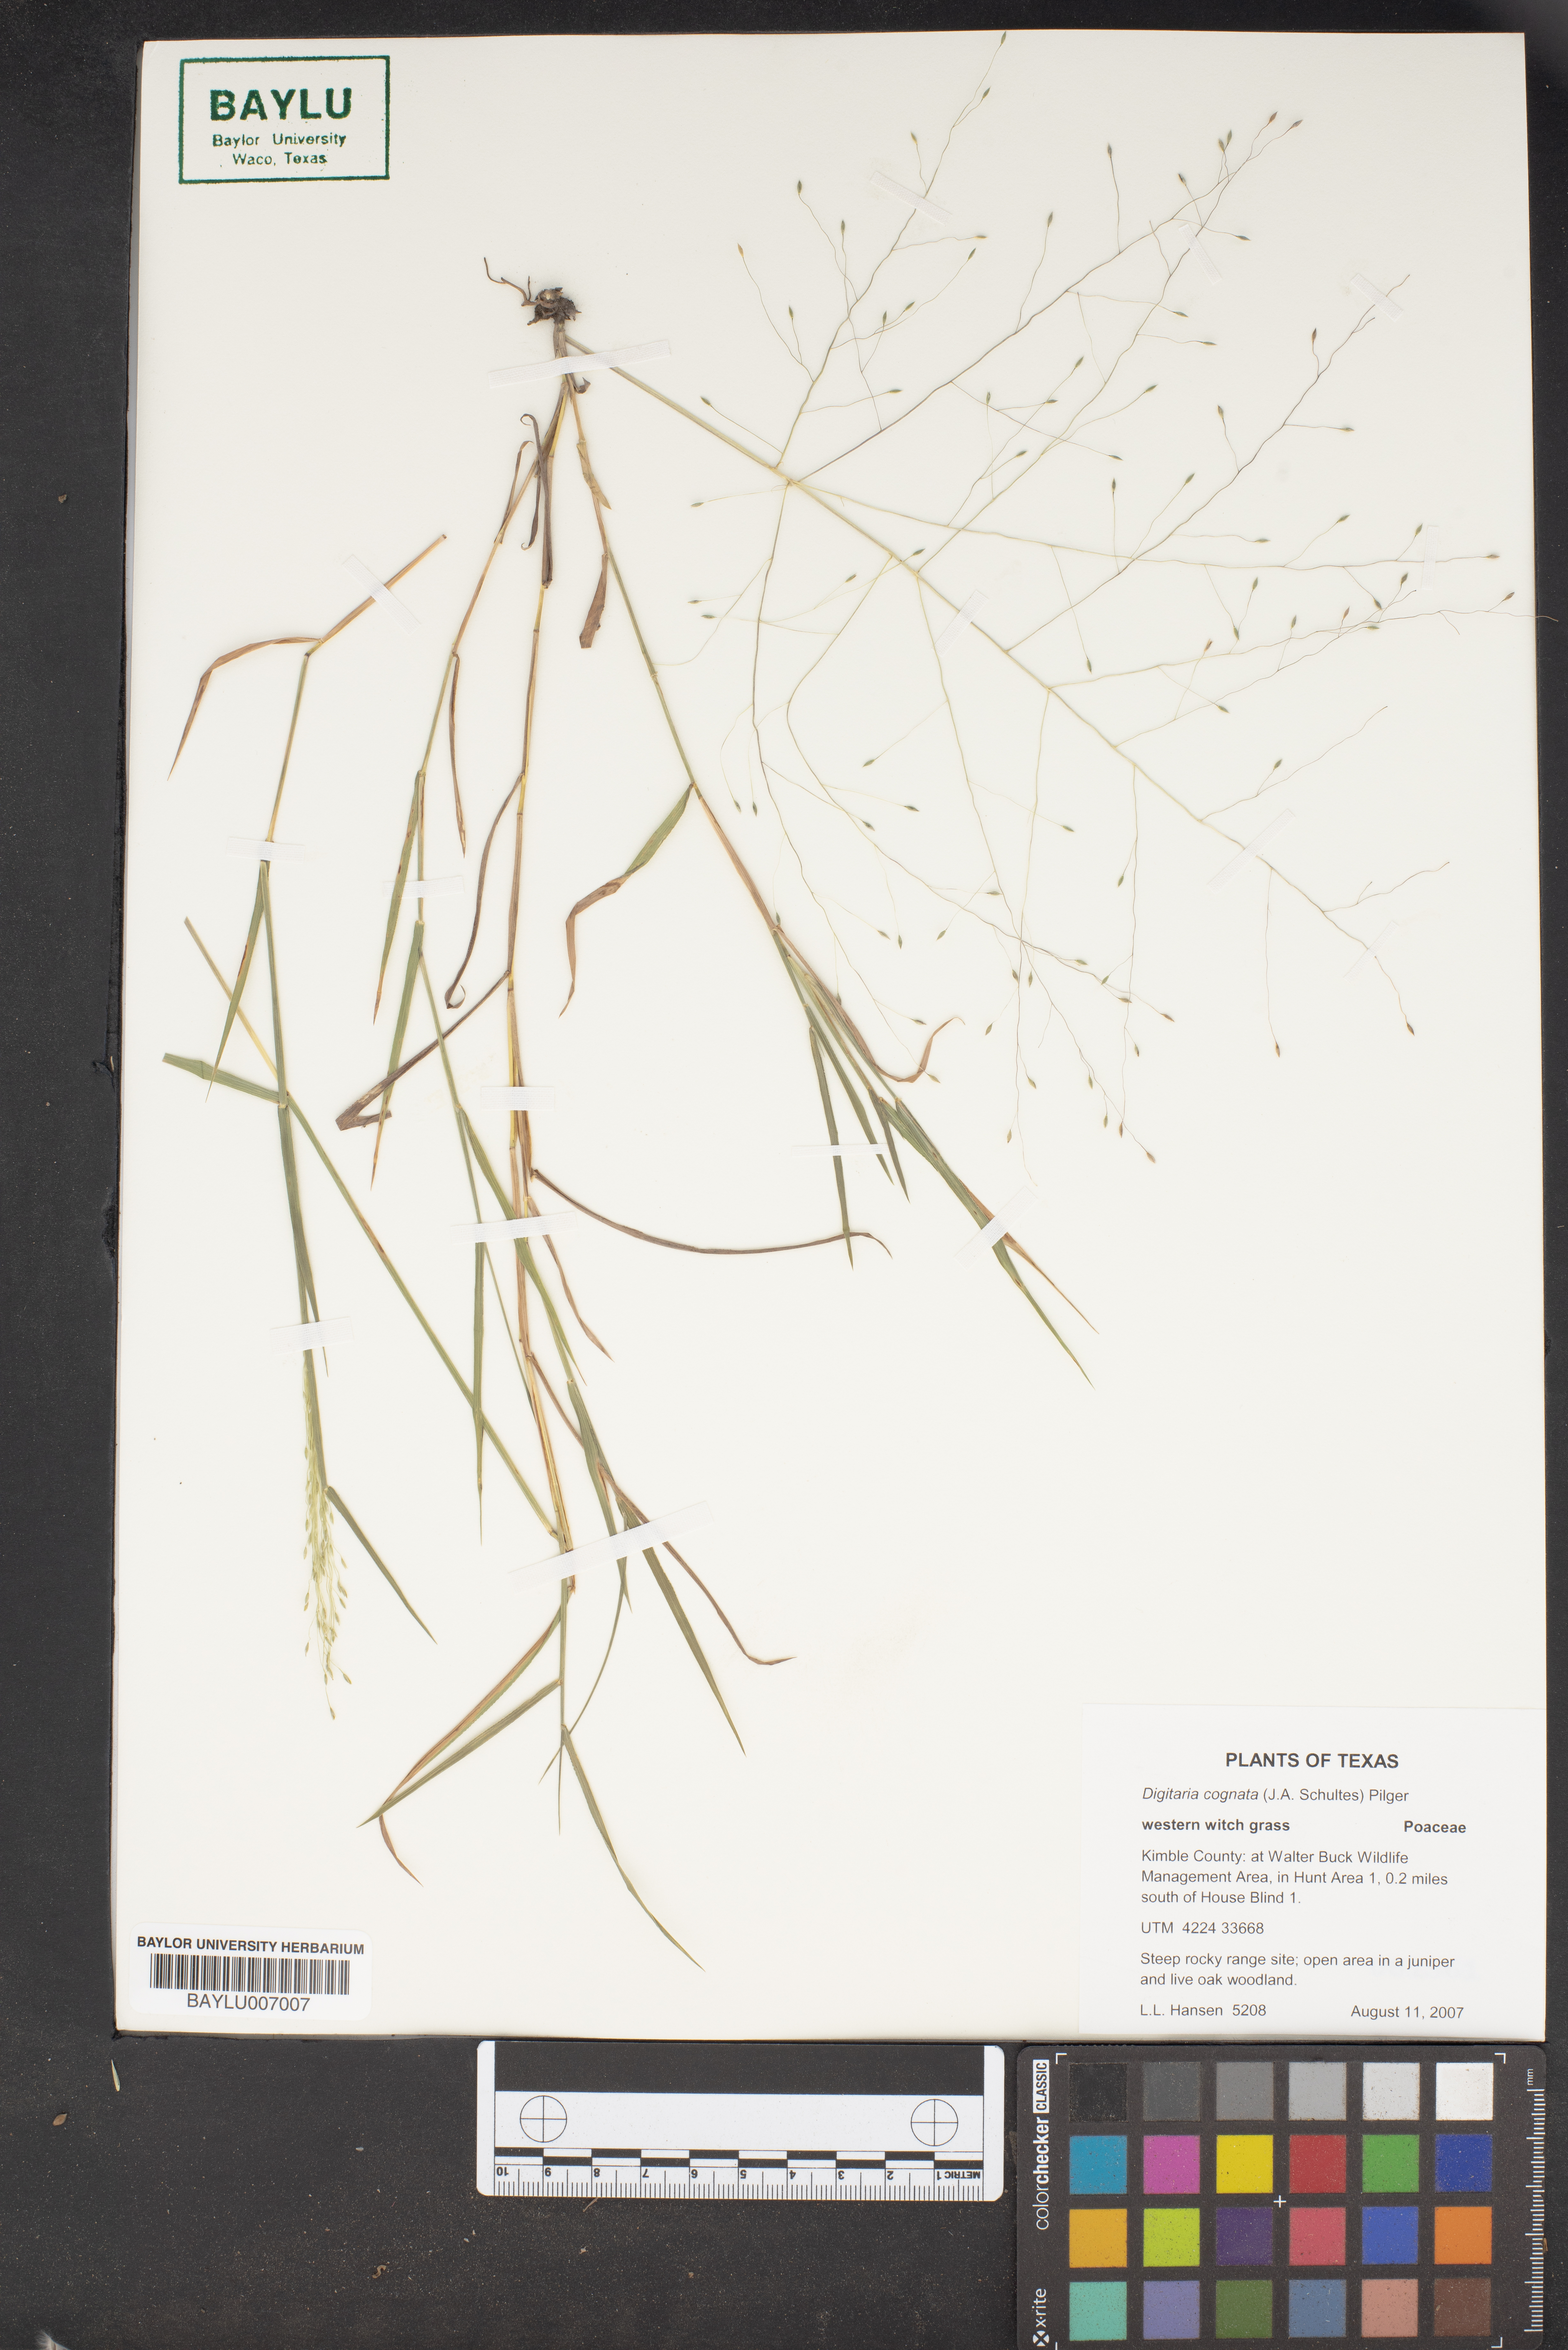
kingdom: Plantae
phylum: Tracheophyta
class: Liliopsida
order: Poales
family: Poaceae
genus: Digitaria
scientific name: Digitaria cognata
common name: Fall witchgrass
